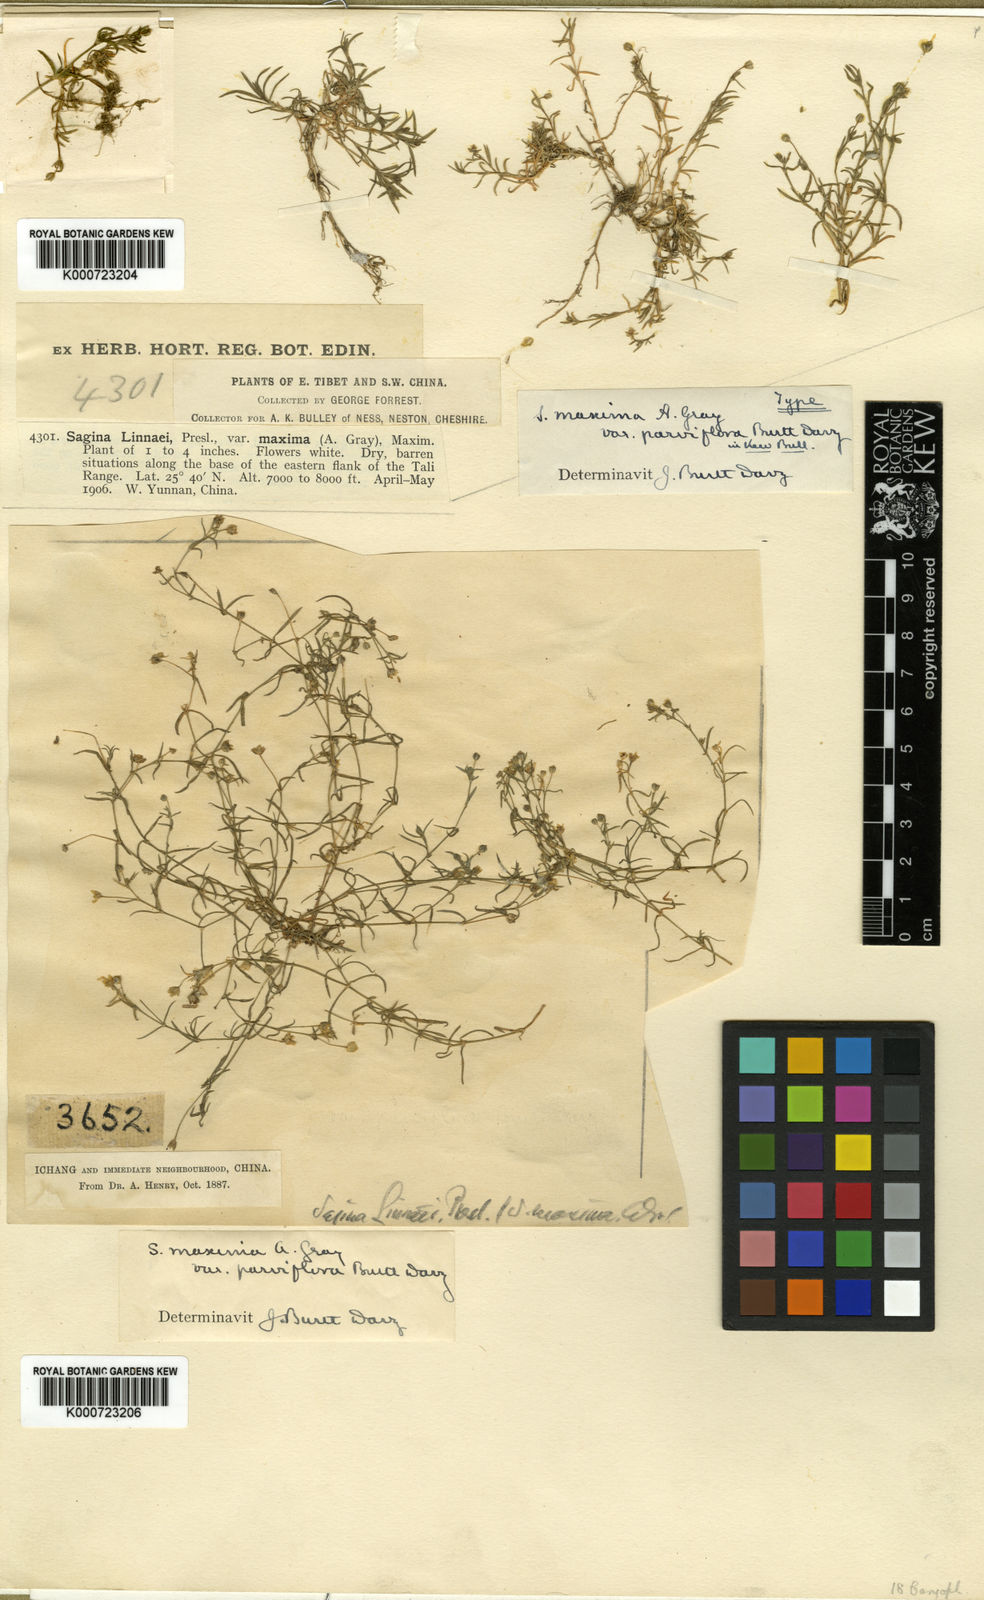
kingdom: Plantae
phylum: Tracheophyta
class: Magnoliopsida
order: Caryophyllales
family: Caryophyllaceae
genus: Sagina
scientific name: Sagina maxima
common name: Coastal pearlwort
